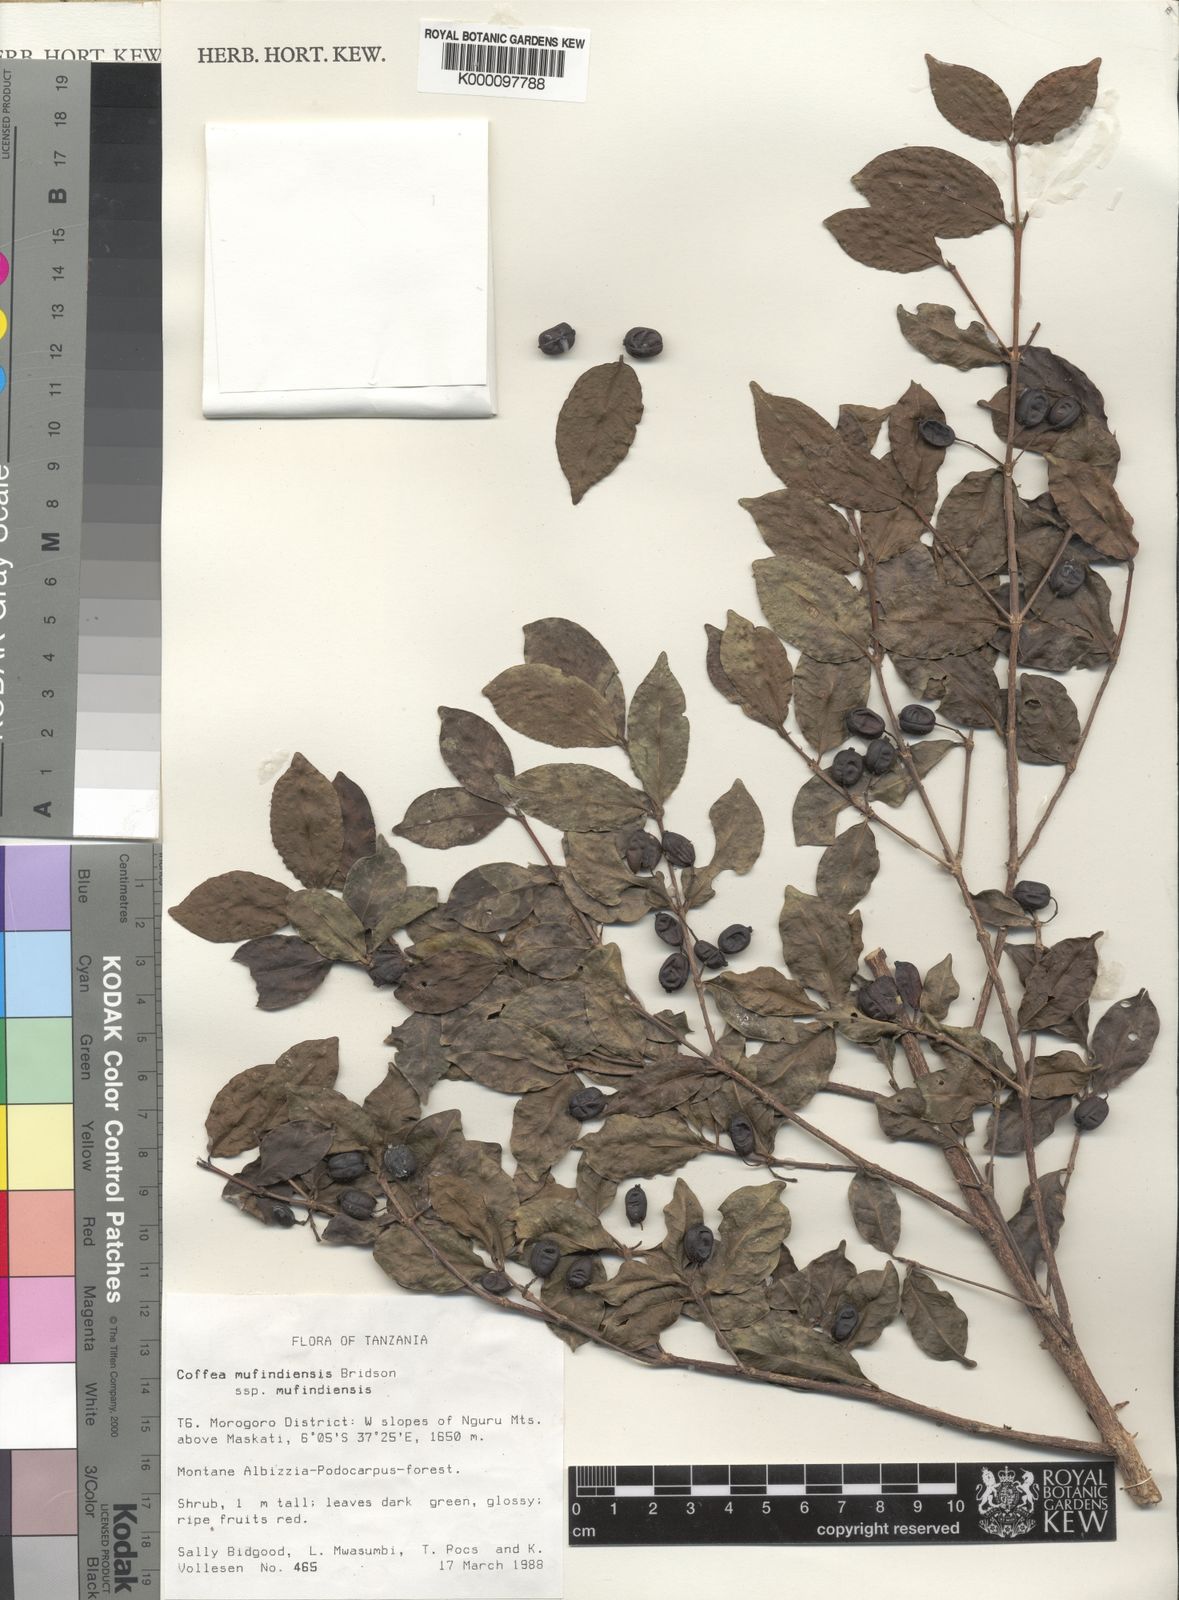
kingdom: Plantae
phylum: Tracheophyta
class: Magnoliopsida
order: Gentianales
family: Rubiaceae
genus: Coffea
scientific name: Coffea mufindiensis
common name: Wild coffee
